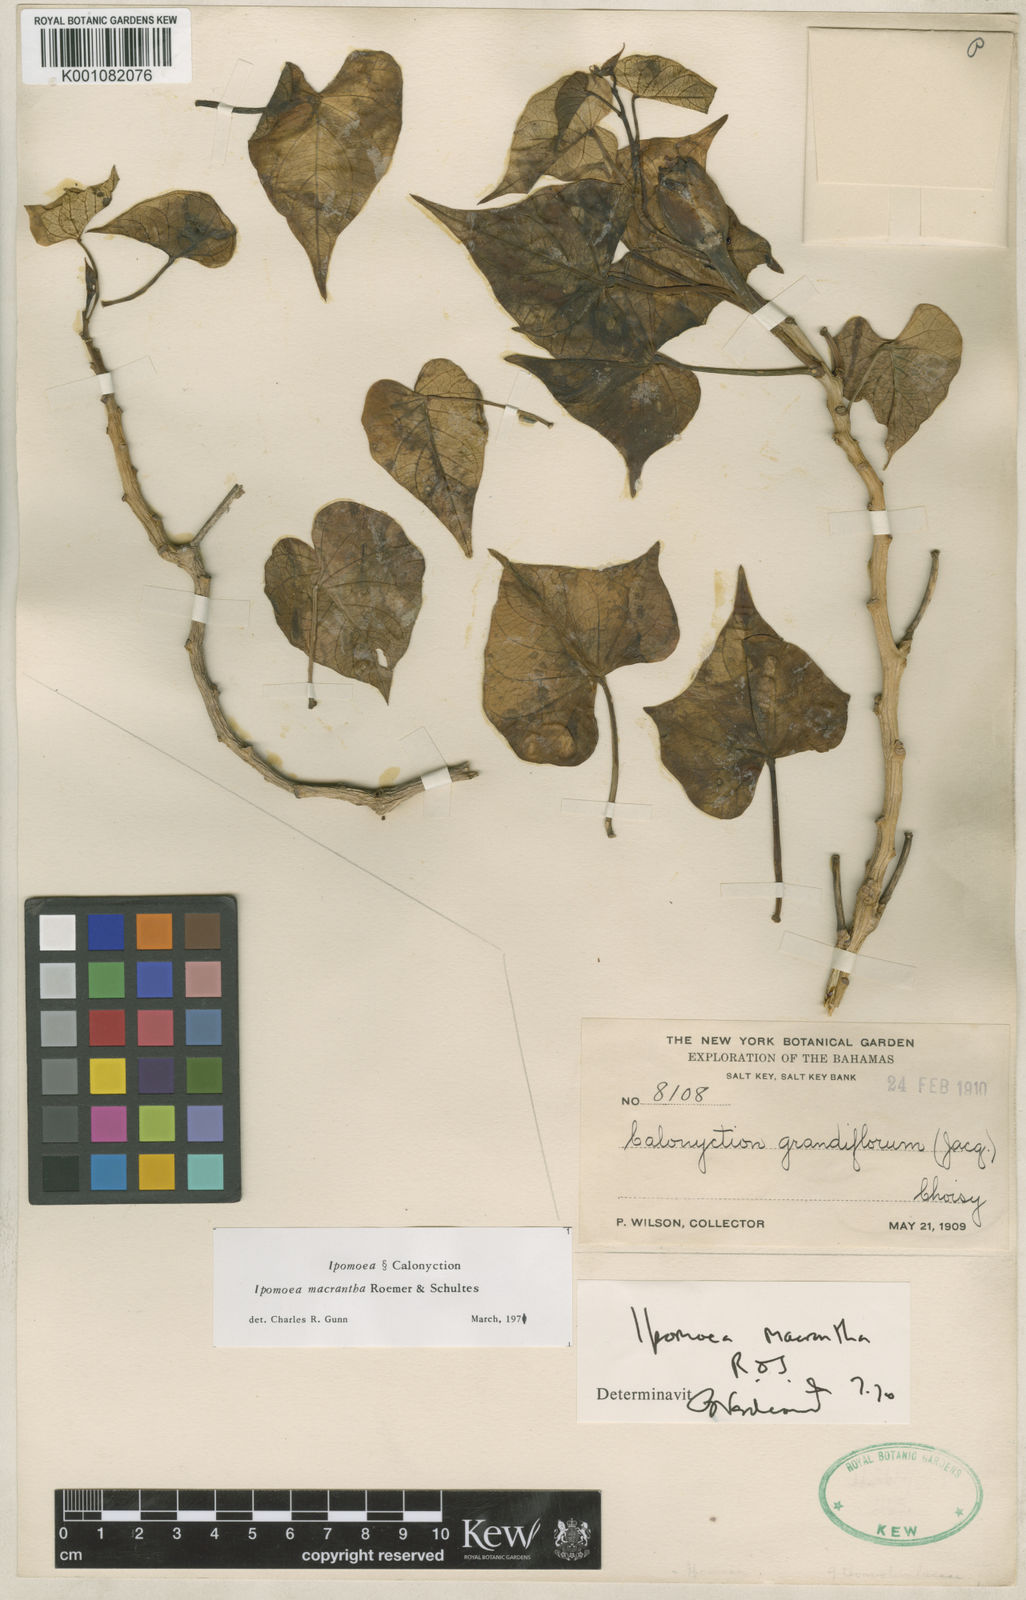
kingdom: Plantae
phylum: Tracheophyta
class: Magnoliopsida
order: Solanales
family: Convolvulaceae
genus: Ipomoea
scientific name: Ipomoea violacea
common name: Beach moonflower
